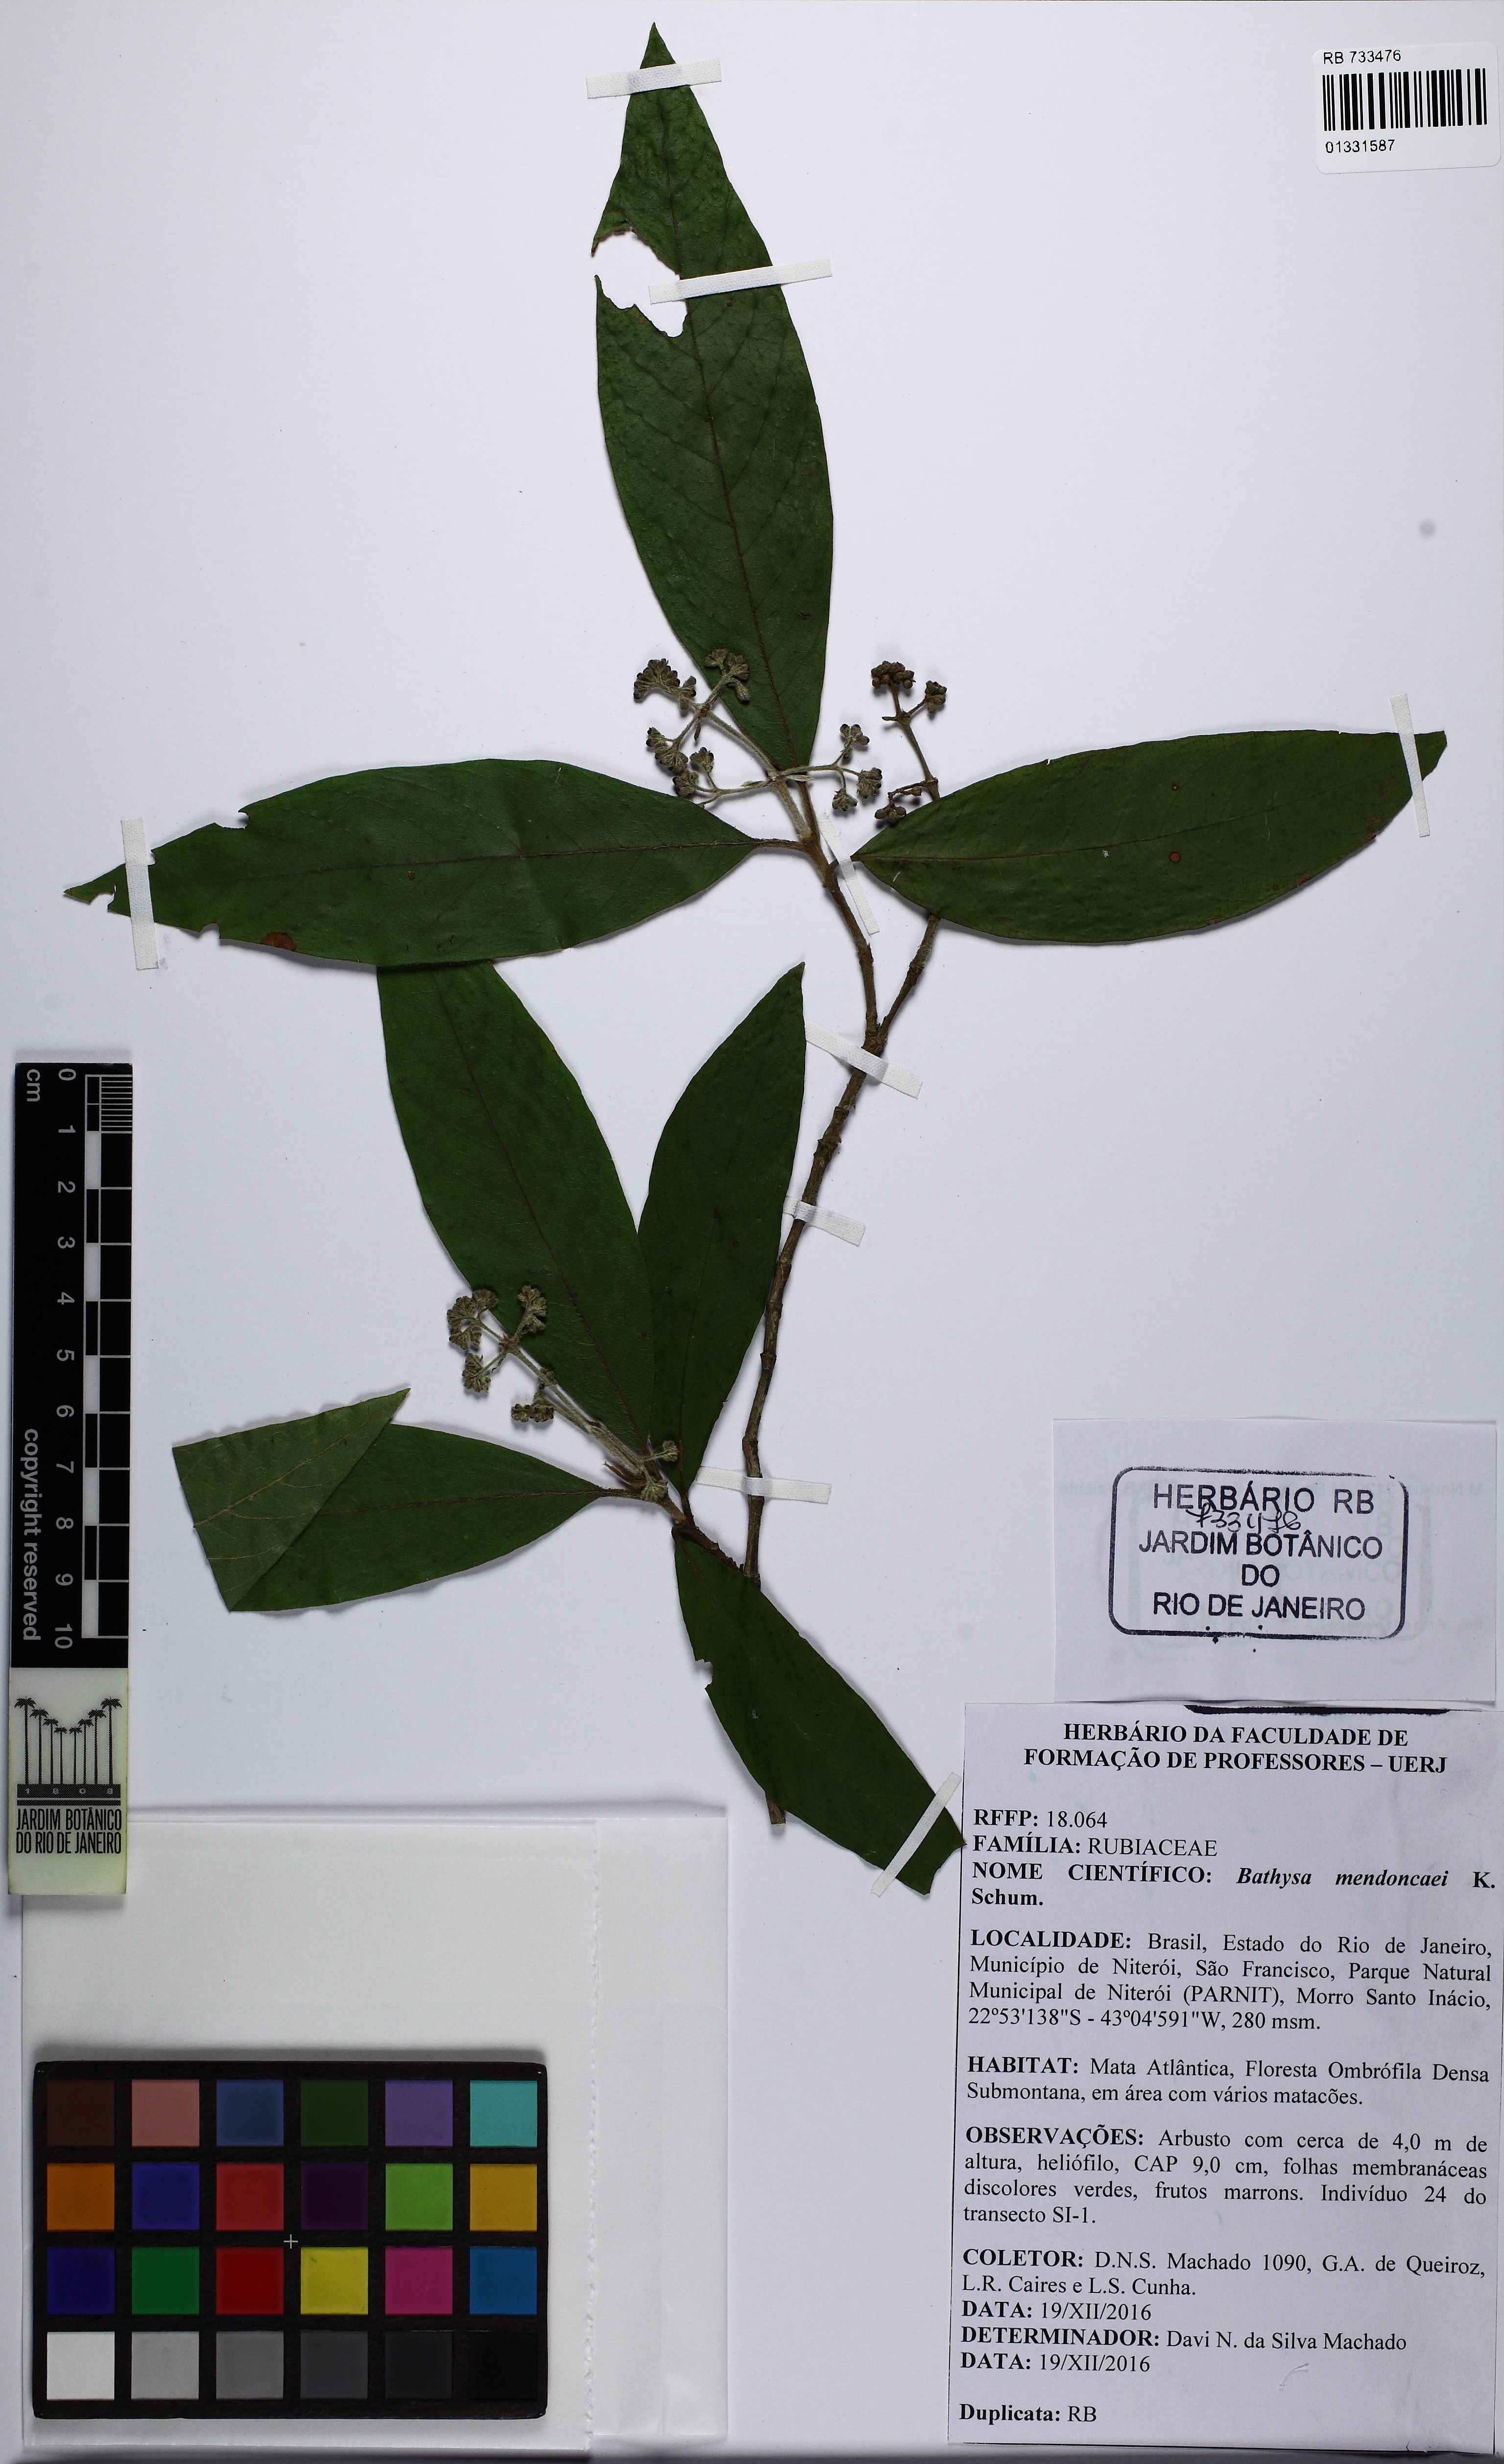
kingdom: Plantae
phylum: Tracheophyta
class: Magnoliopsida
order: Gentianales
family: Rubiaceae
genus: Bathysa
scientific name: Bathysa mendoncaei
